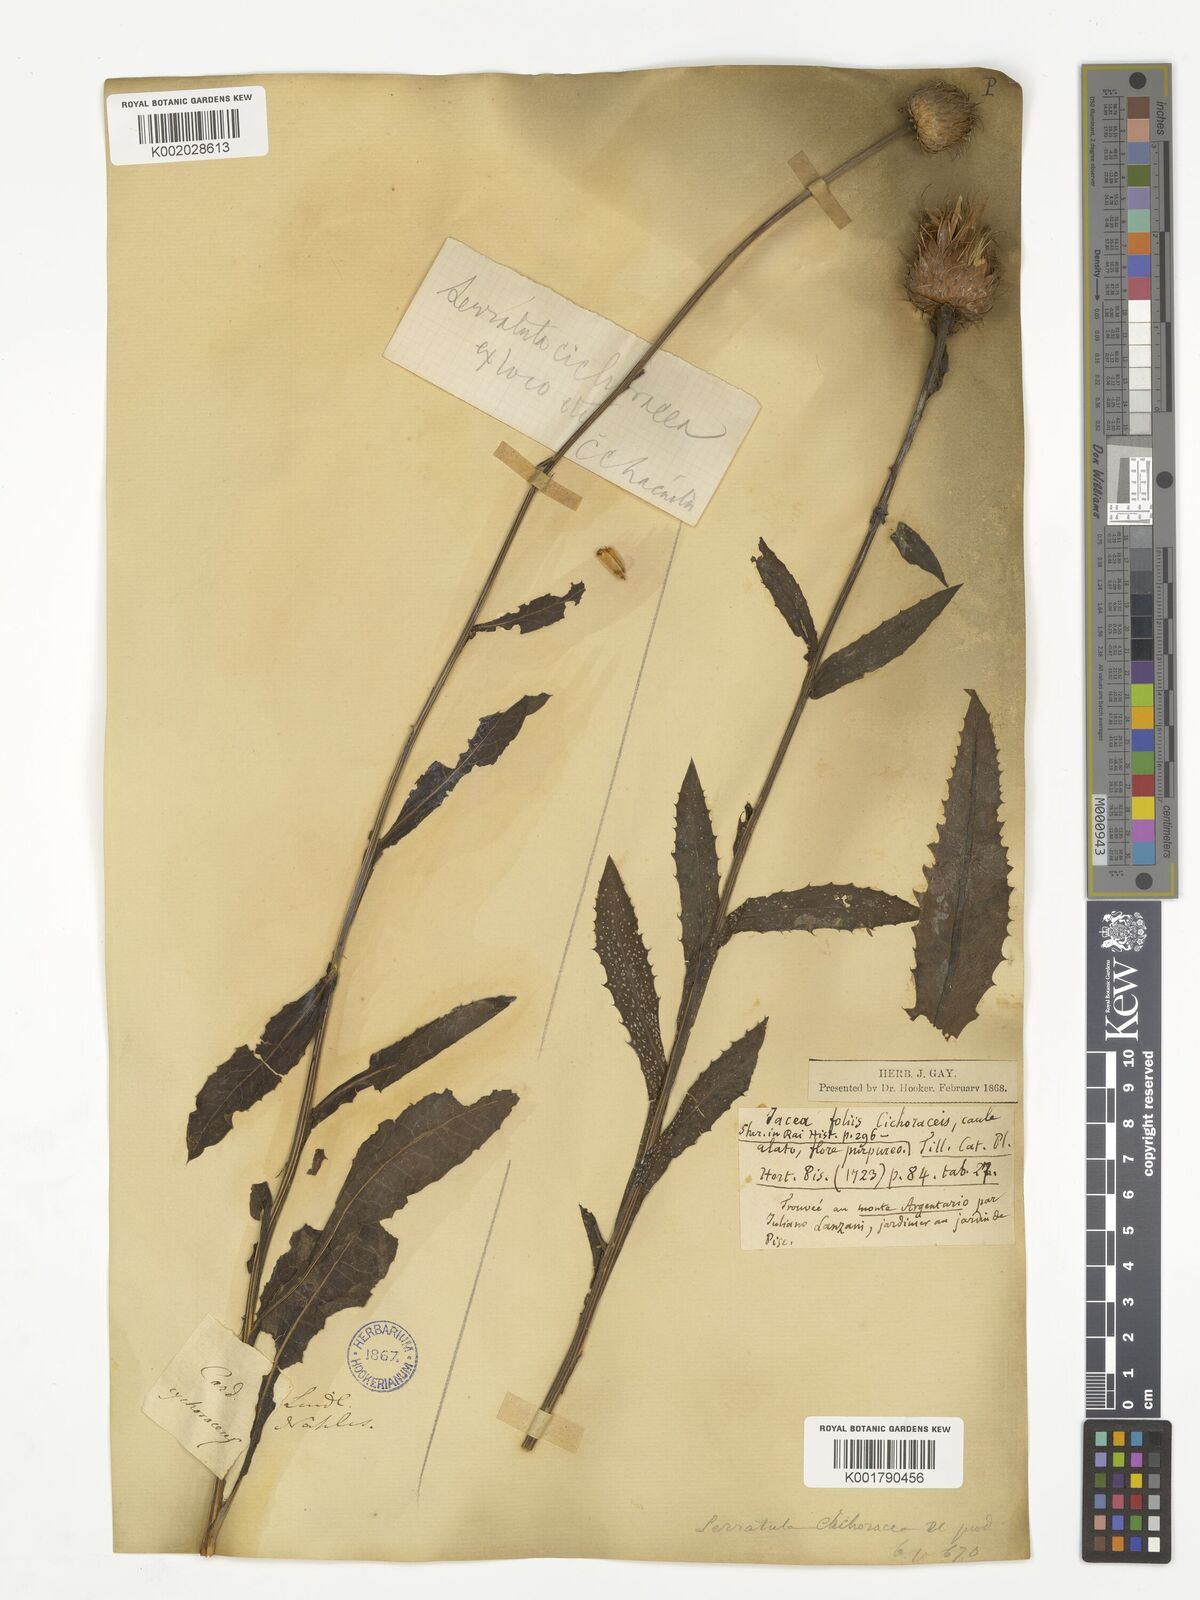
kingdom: Plantae
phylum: Tracheophyta
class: Magnoliopsida
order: Asterales
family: Asteraceae
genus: Klasea
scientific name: Klasea flavescens
